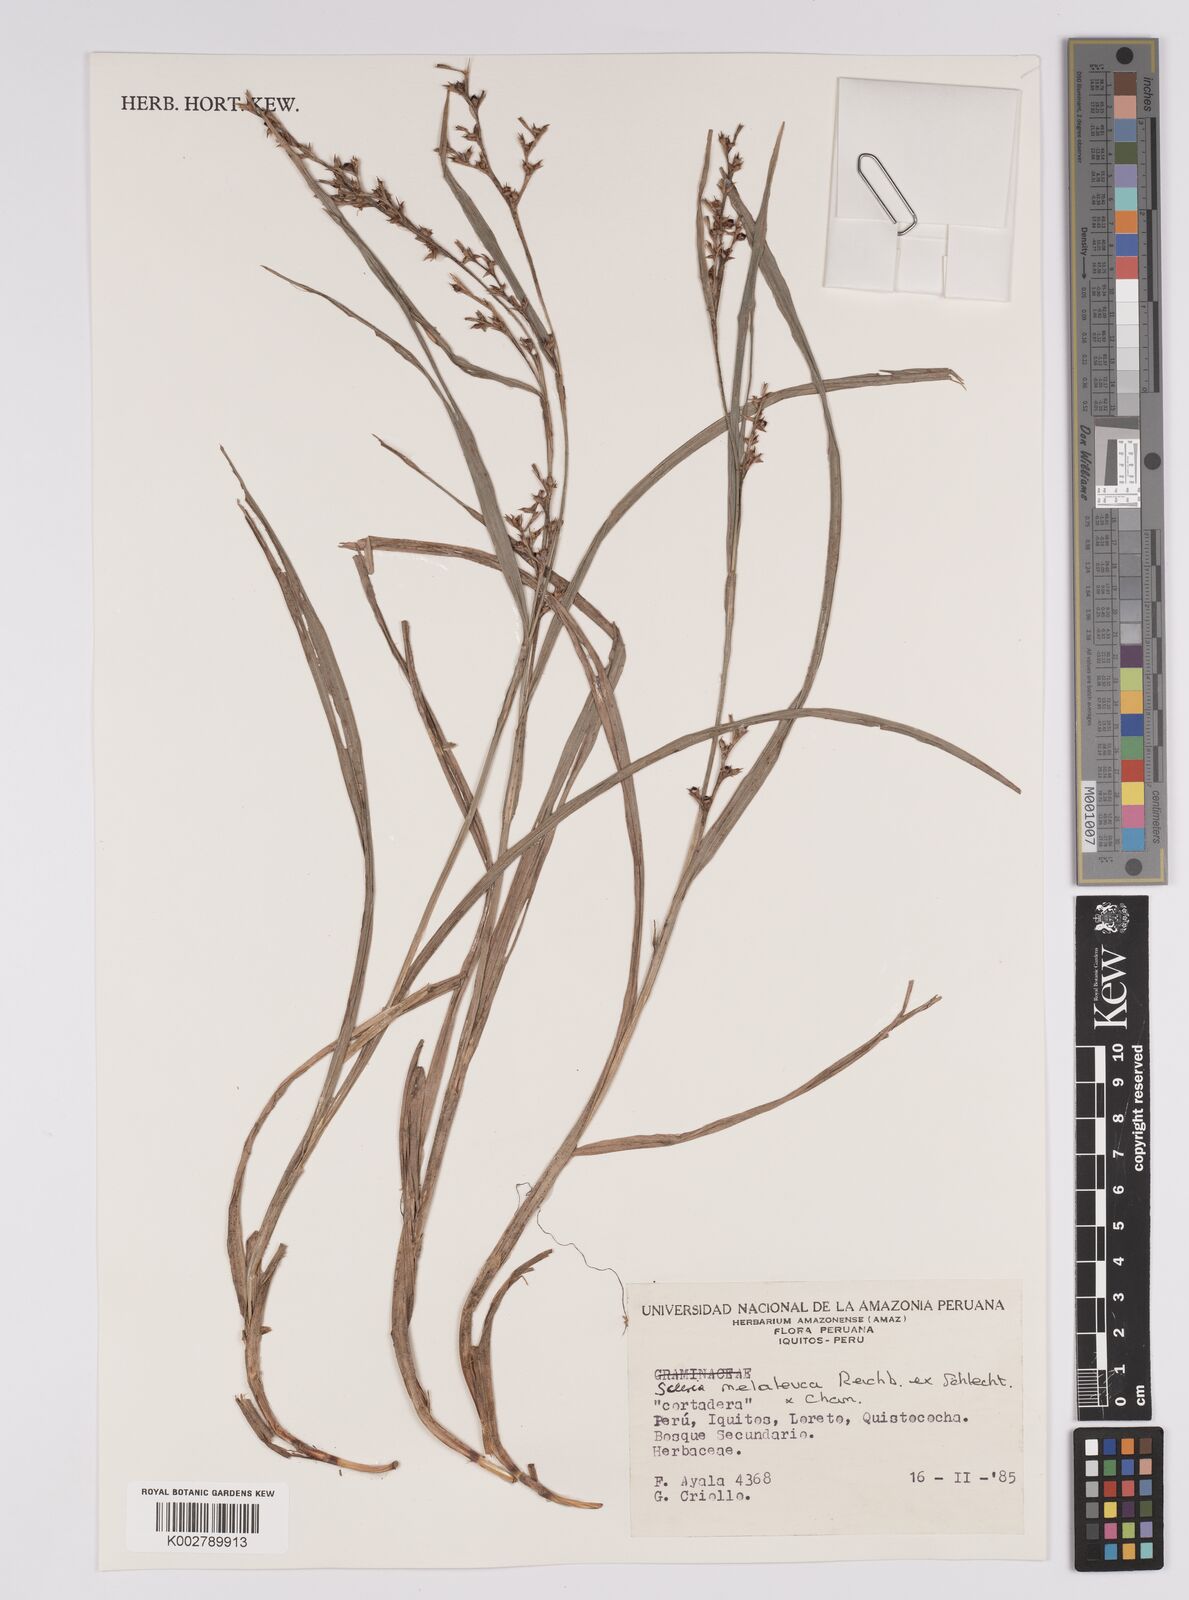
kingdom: Plantae
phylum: Tracheophyta
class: Liliopsida
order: Poales
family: Cyperaceae
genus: Scleria
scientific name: Scleria gaertneri
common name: Cortadera blanca
